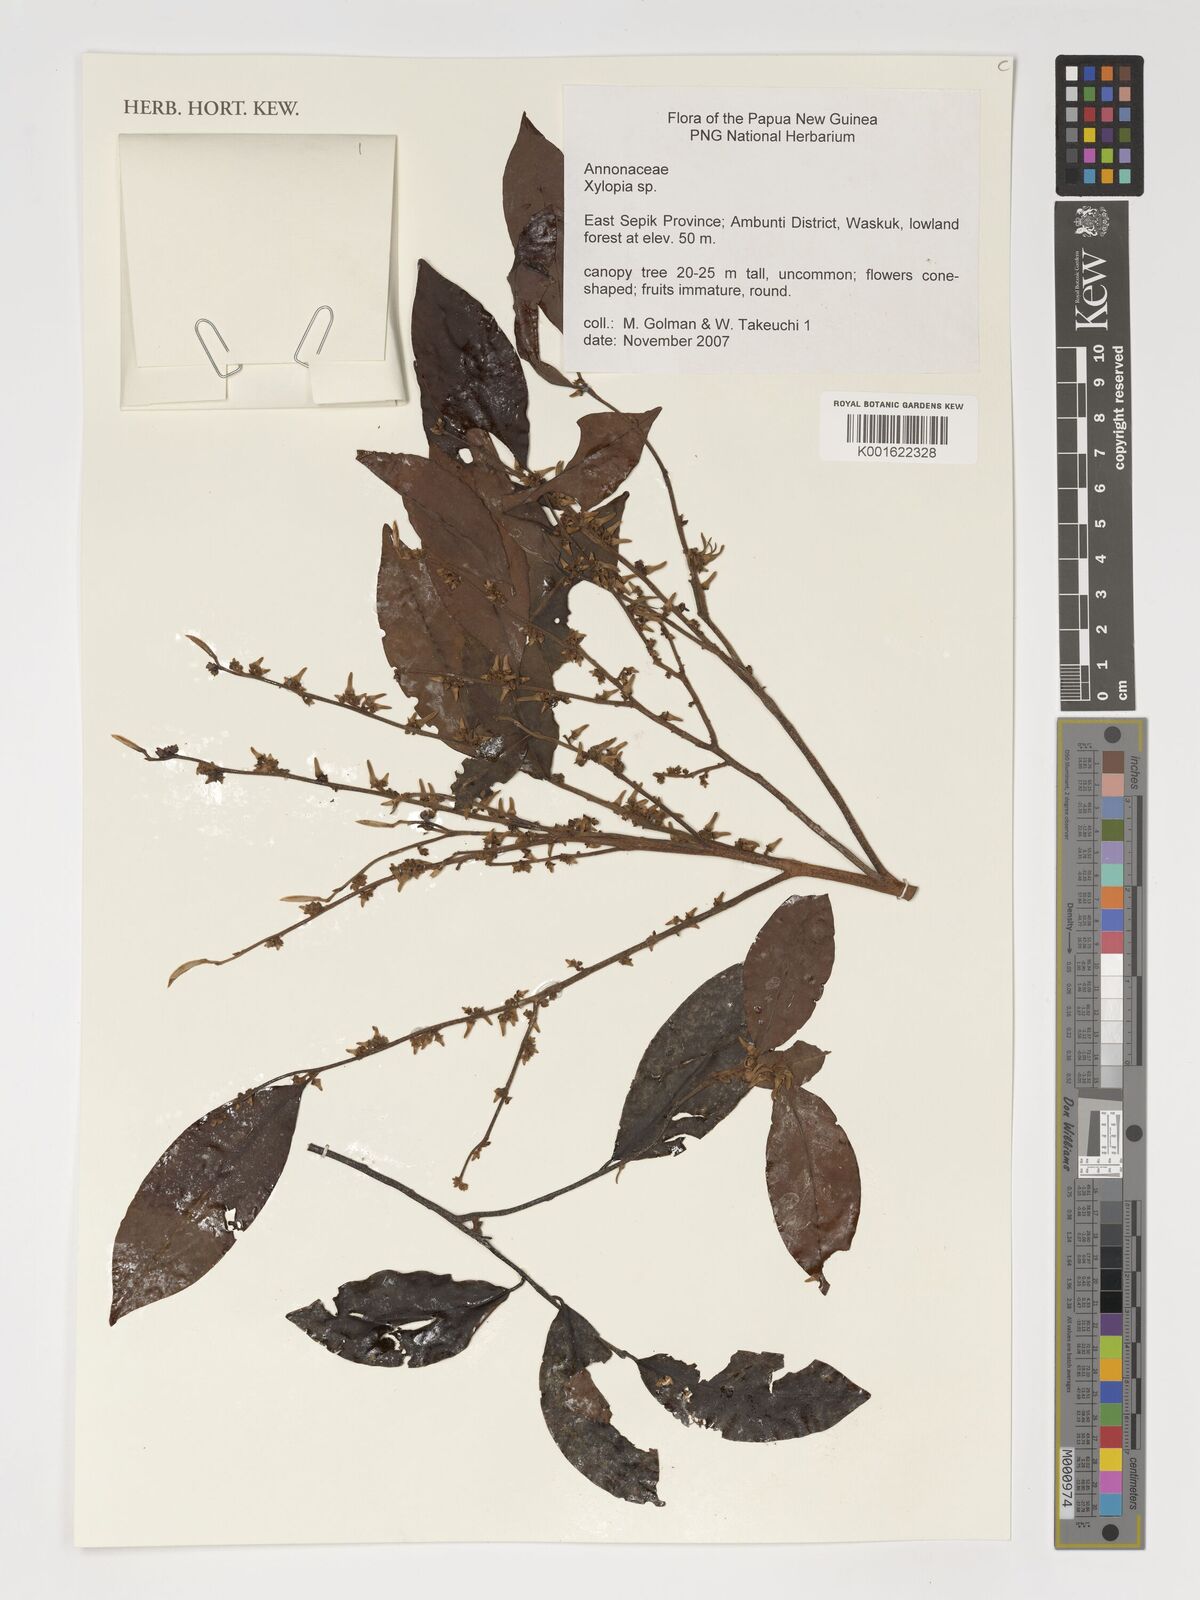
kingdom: Plantae
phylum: Tracheophyta
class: Magnoliopsida
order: Magnoliales
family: Annonaceae
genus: Xylopia
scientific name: Xylopia
